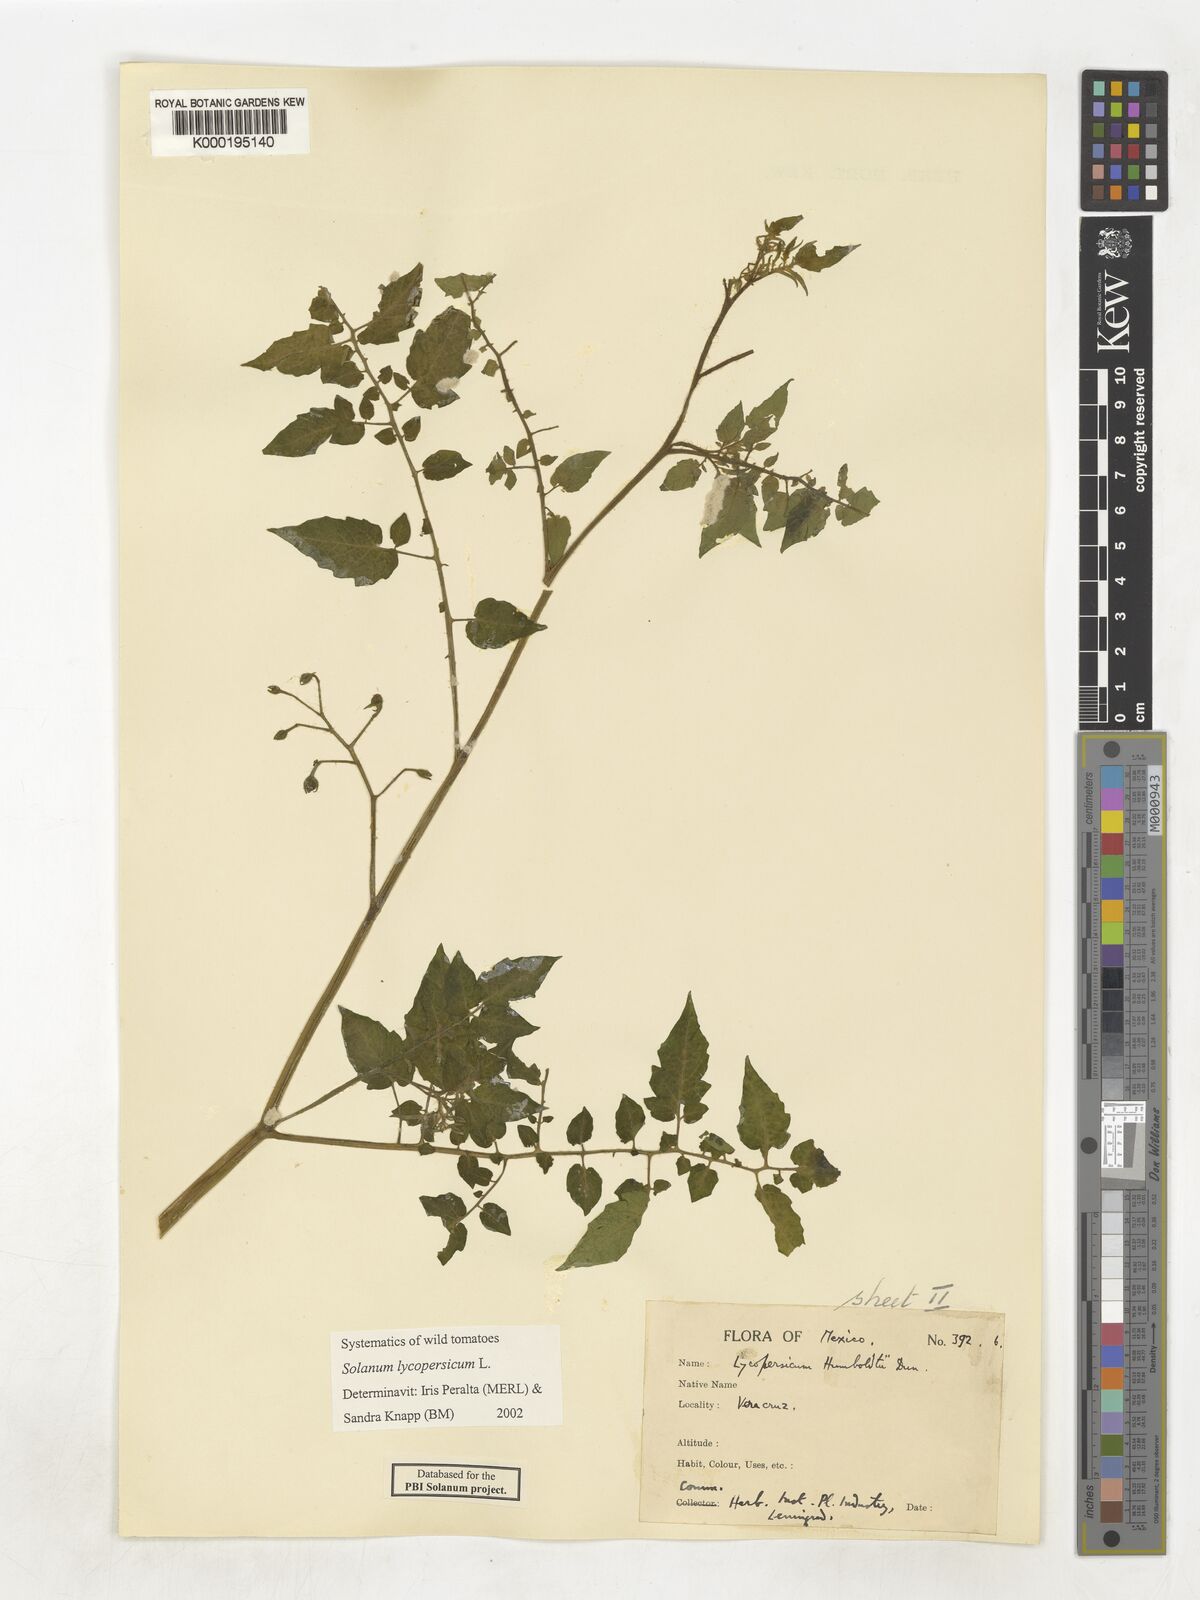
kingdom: Plantae
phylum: Tracheophyta
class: Magnoliopsida
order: Solanales
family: Solanaceae
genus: Solanum
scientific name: Solanum lycopersicum
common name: Garden tomato
